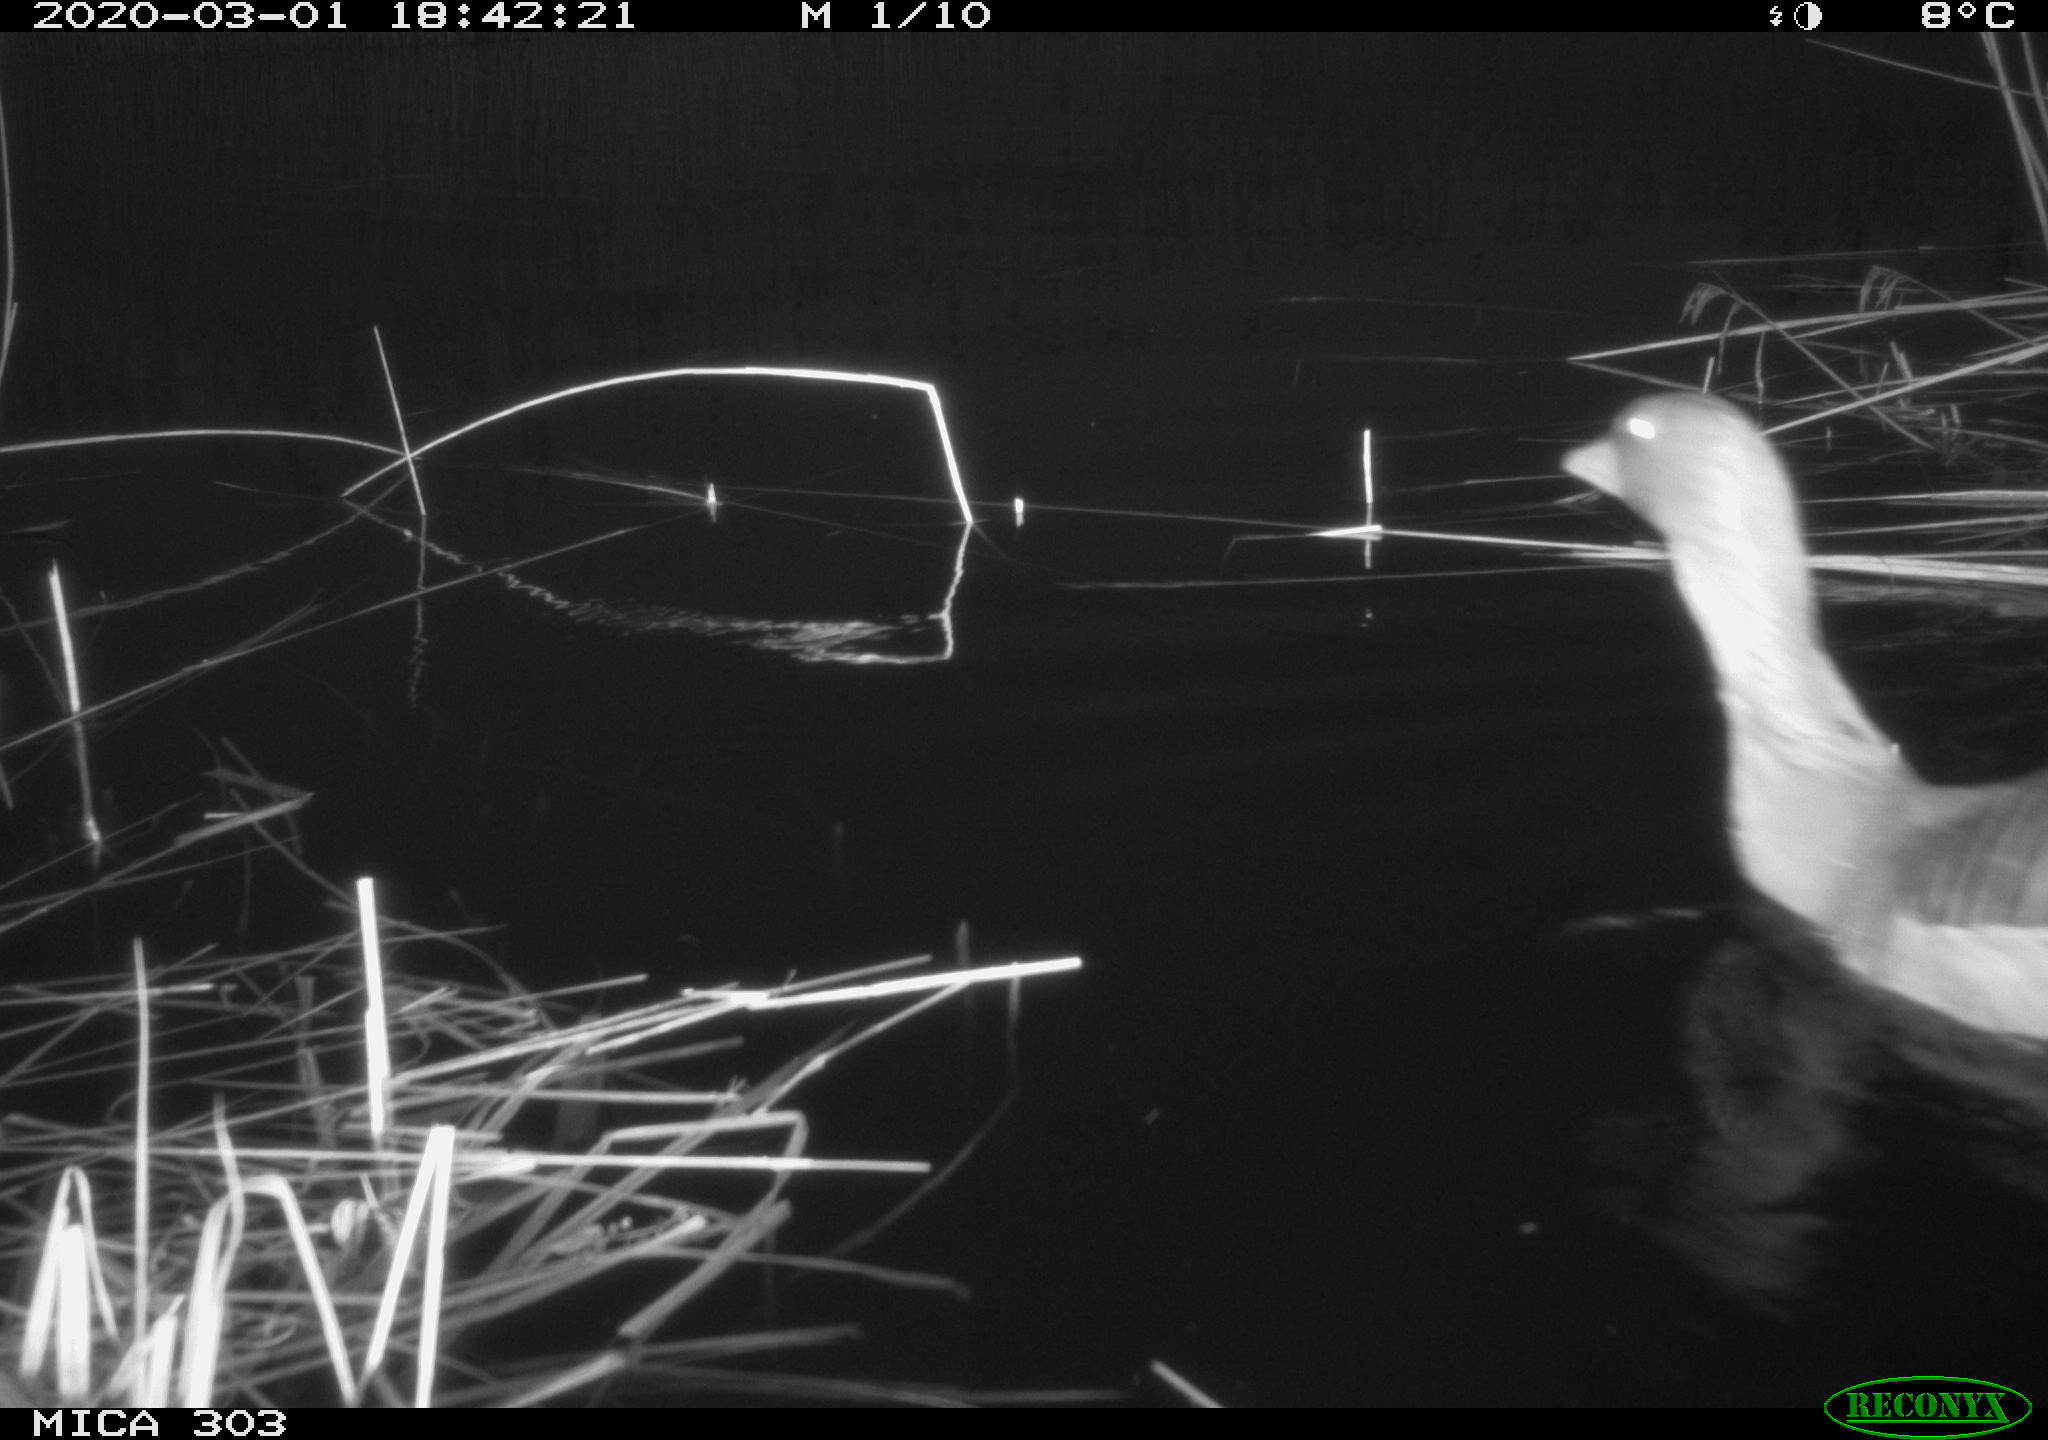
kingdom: Animalia
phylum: Chordata
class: Aves
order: Anseriformes
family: Anatidae
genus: Anser
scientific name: Anser anser
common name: Greylag goose
